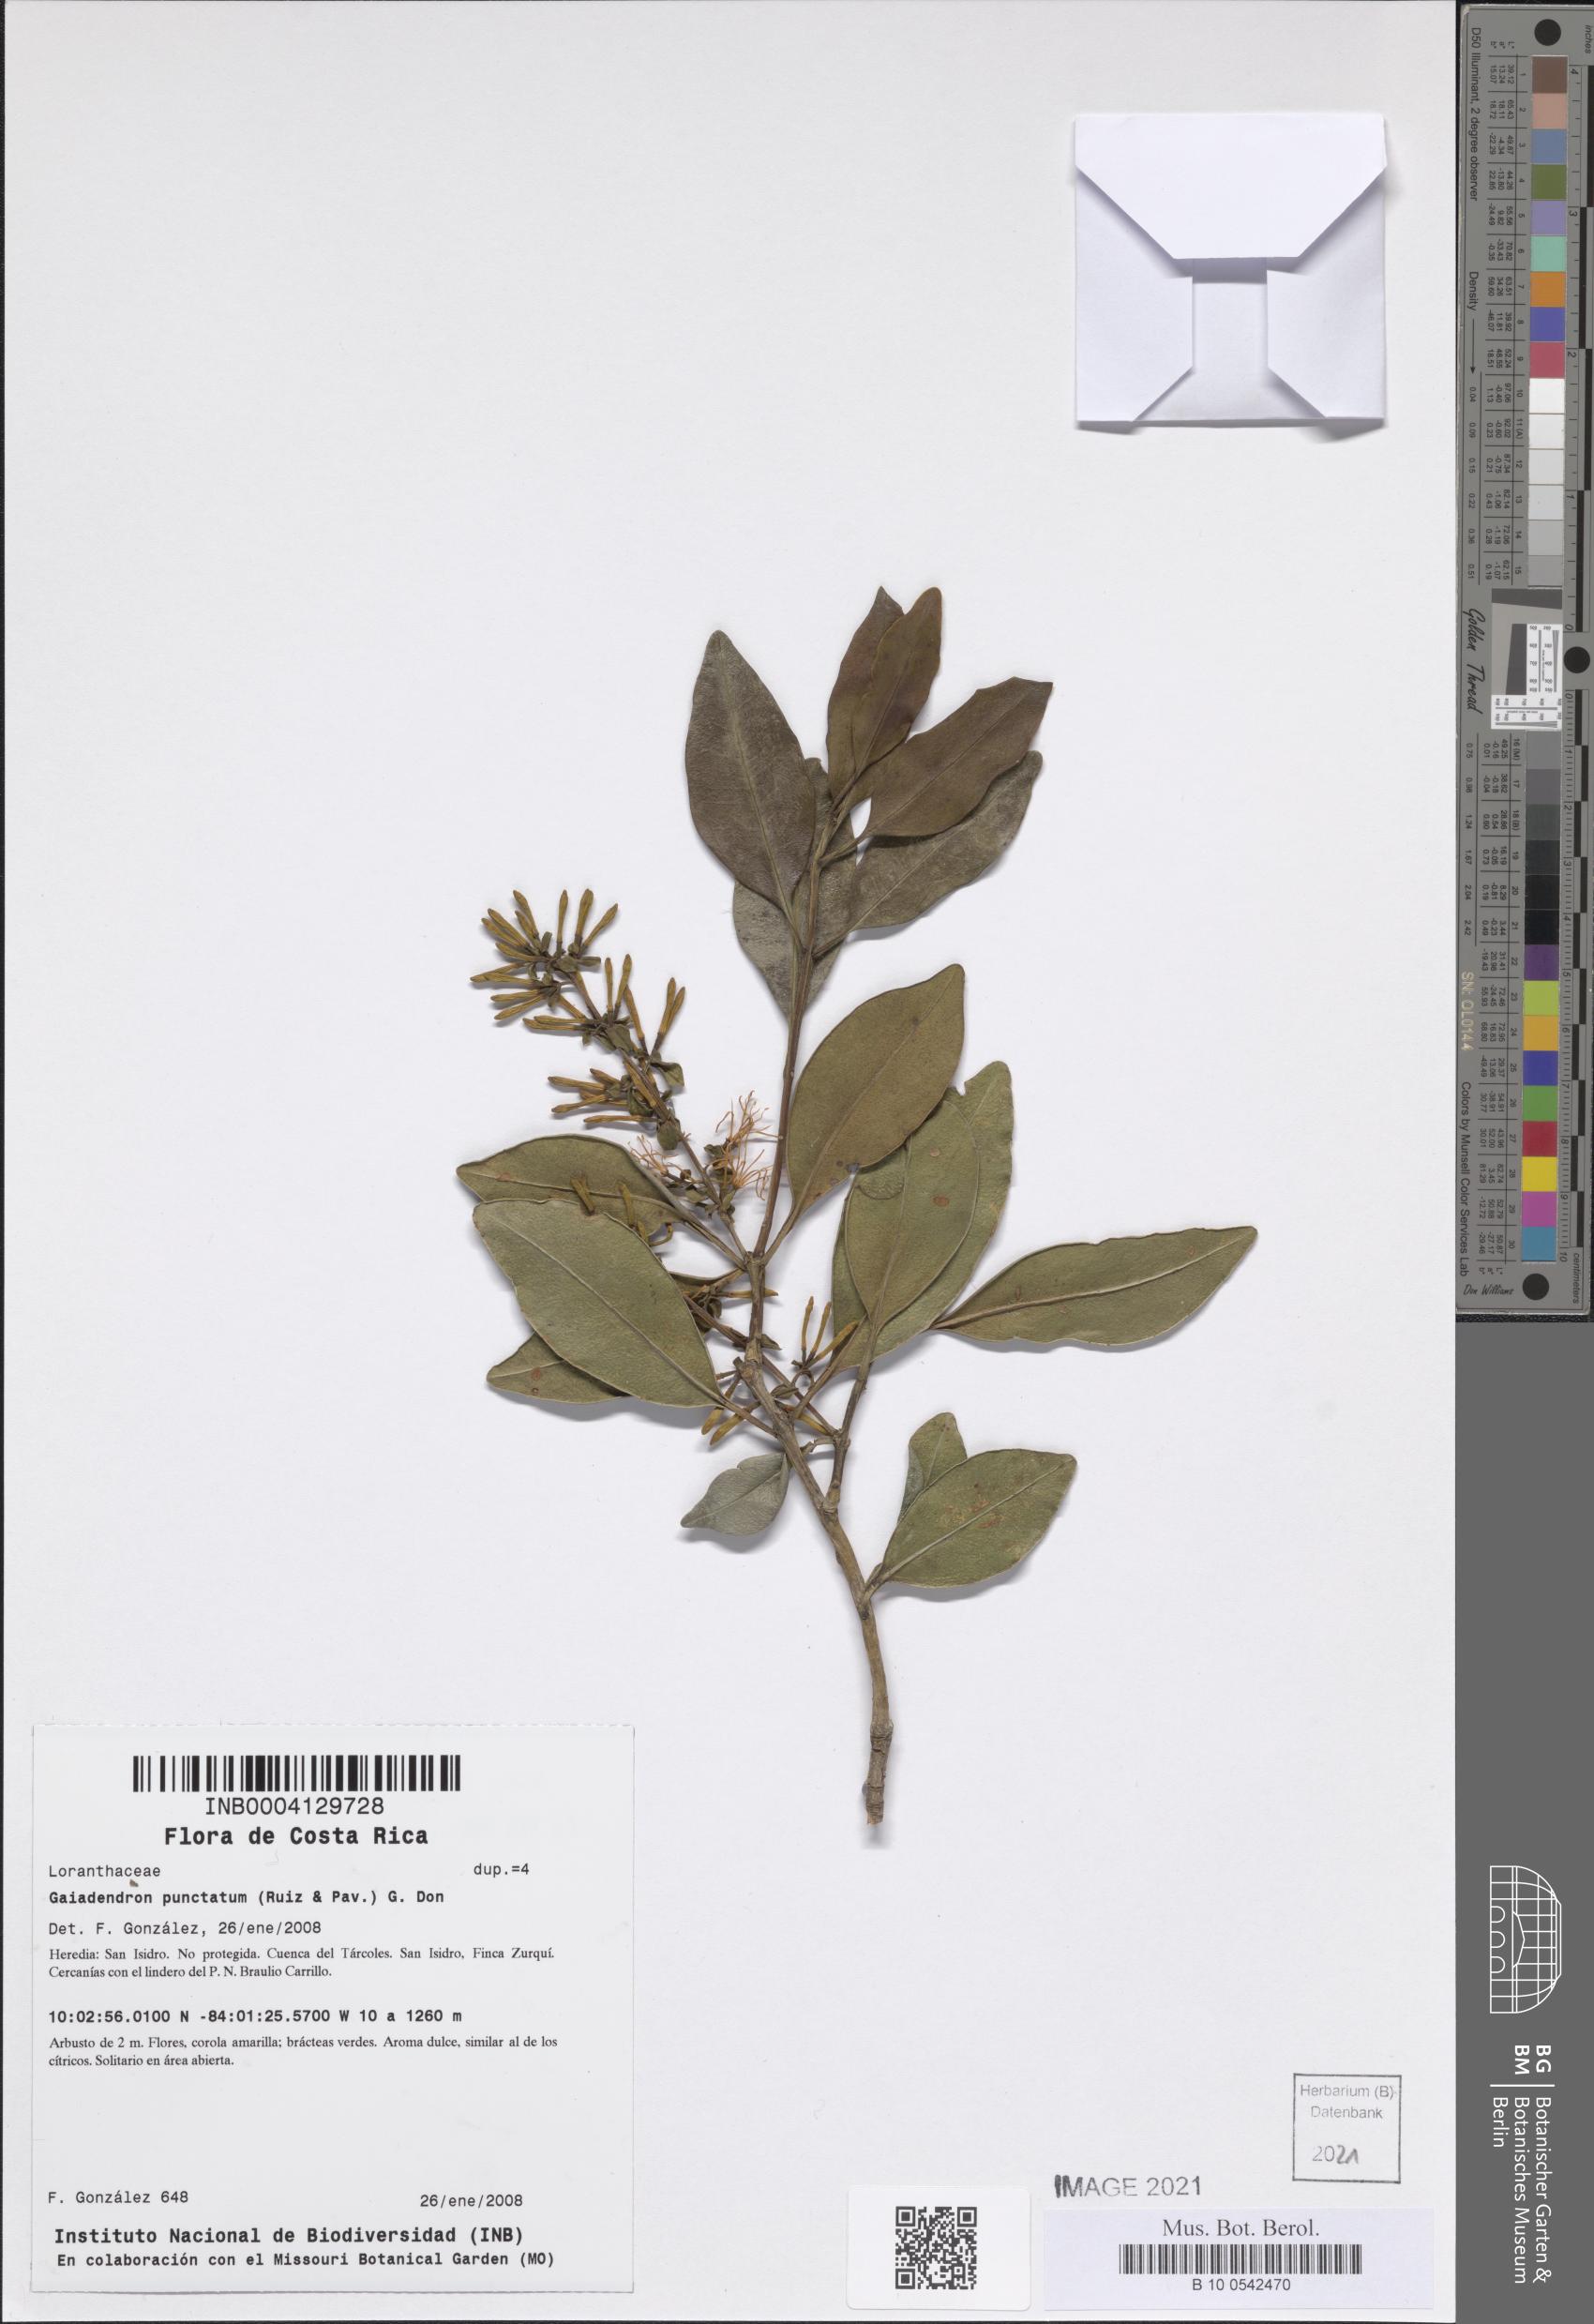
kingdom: Plantae
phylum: Tracheophyta
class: Magnoliopsida
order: Santalales
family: Loranthaceae
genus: Gaiadendron
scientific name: Gaiadendron punctatum
